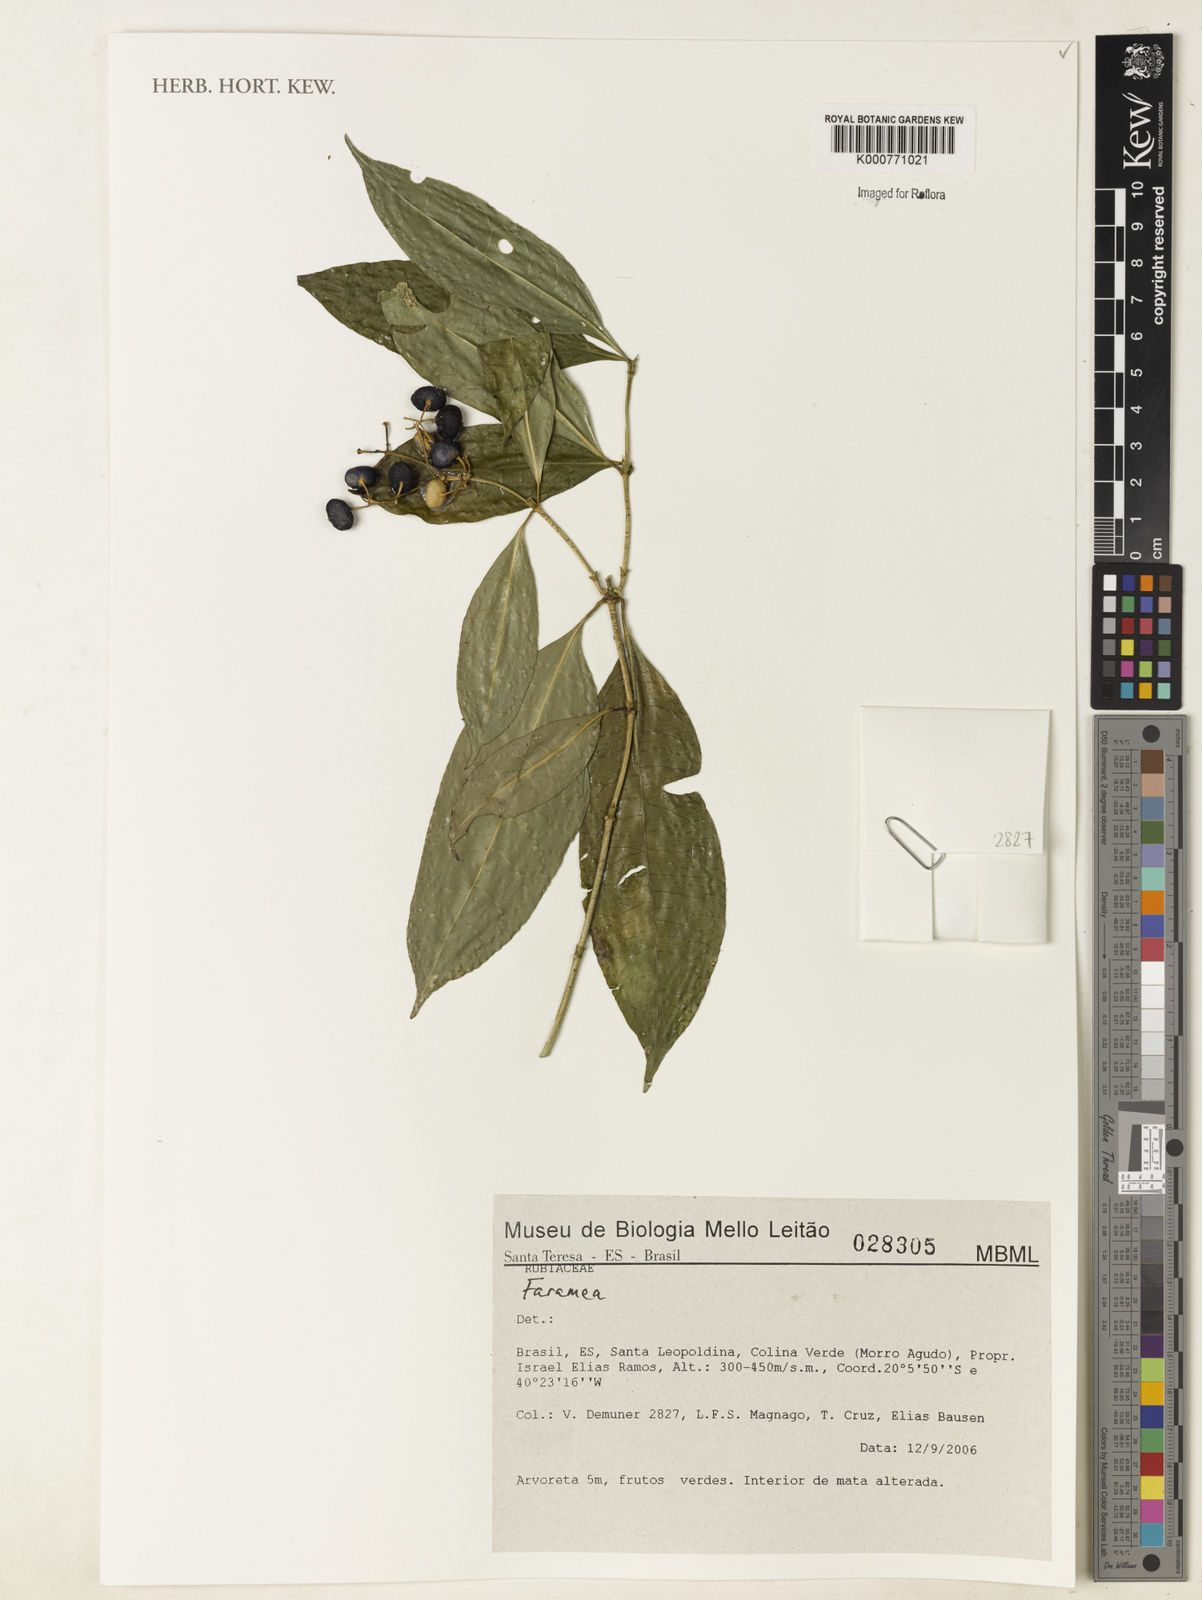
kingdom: Plantae
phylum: Tracheophyta
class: Magnoliopsida
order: Gentianales
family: Rubiaceae
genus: Faramea
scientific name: Faramea
